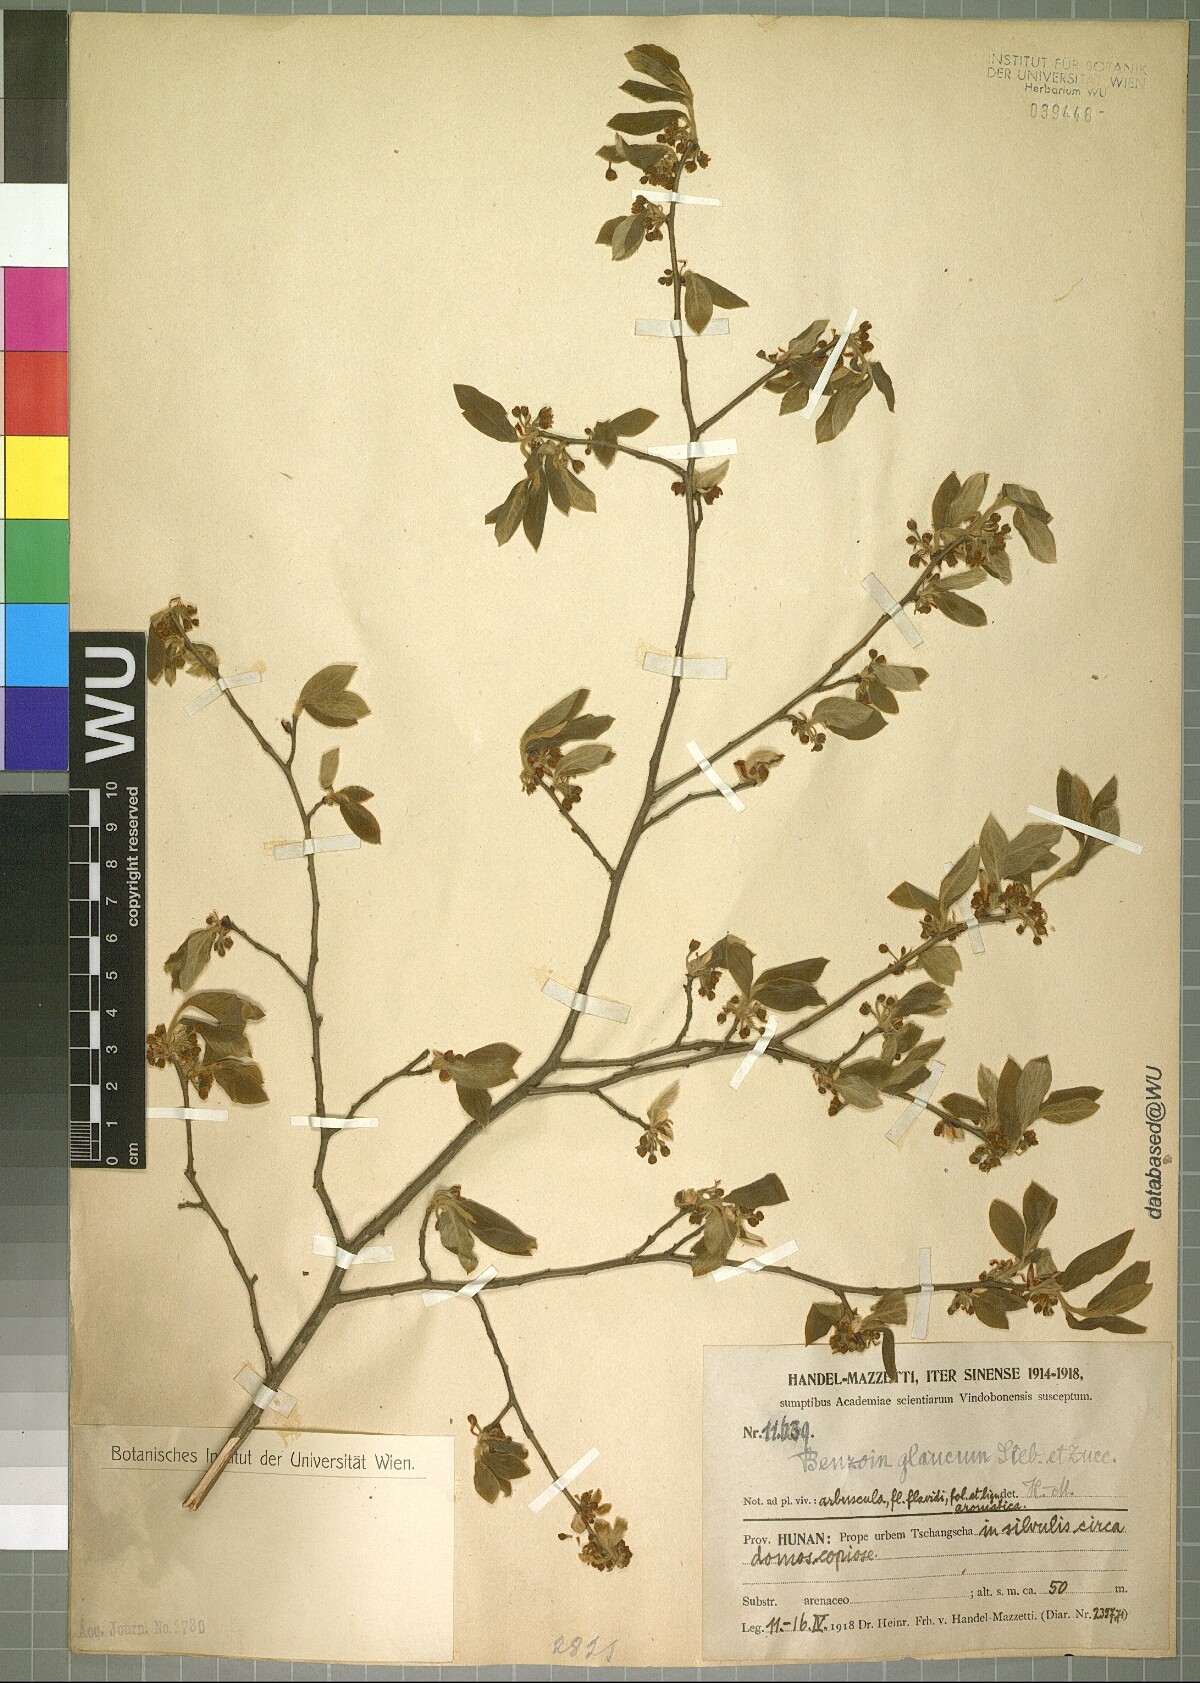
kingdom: Plantae
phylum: Tracheophyta
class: Magnoliopsida
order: Laurales
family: Lauraceae
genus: Lindera
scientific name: Lindera glauca
